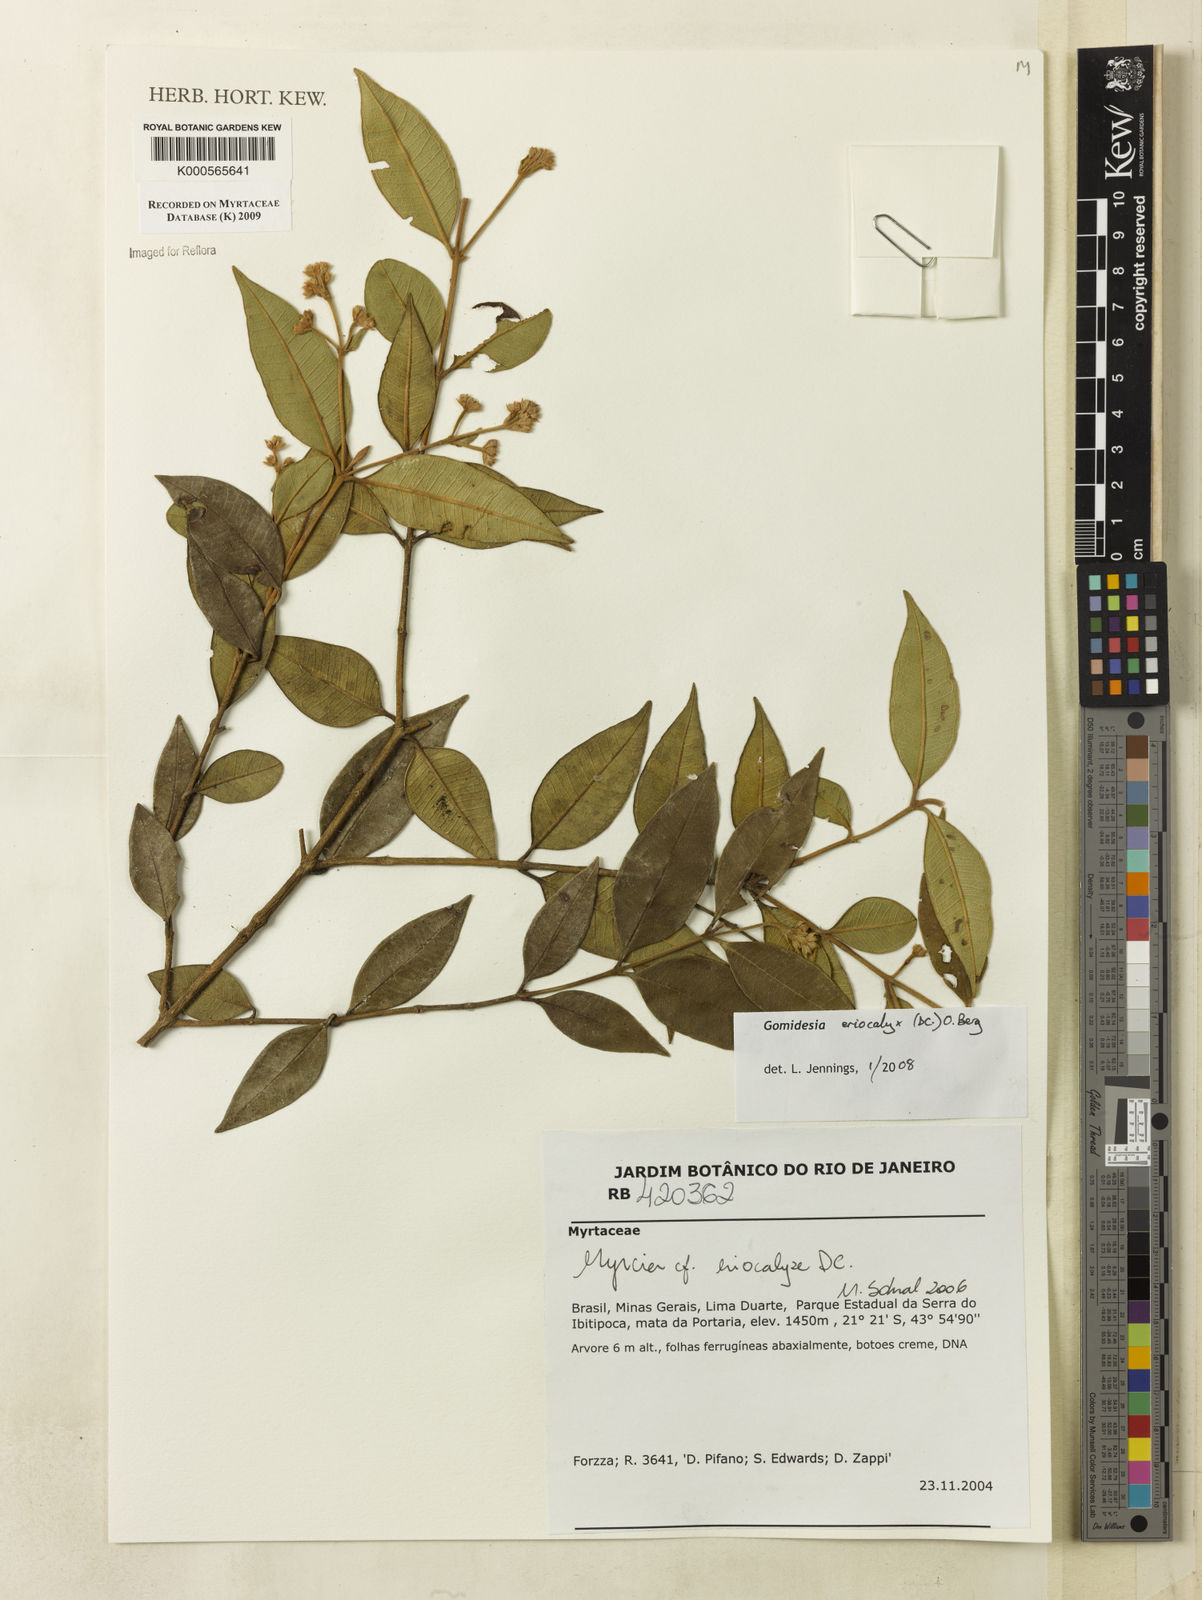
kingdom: Plantae
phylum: Tracheophyta
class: Magnoliopsida
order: Myrtales
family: Myrtaceae
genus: Myrcia
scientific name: Myrcia eriocalyx
